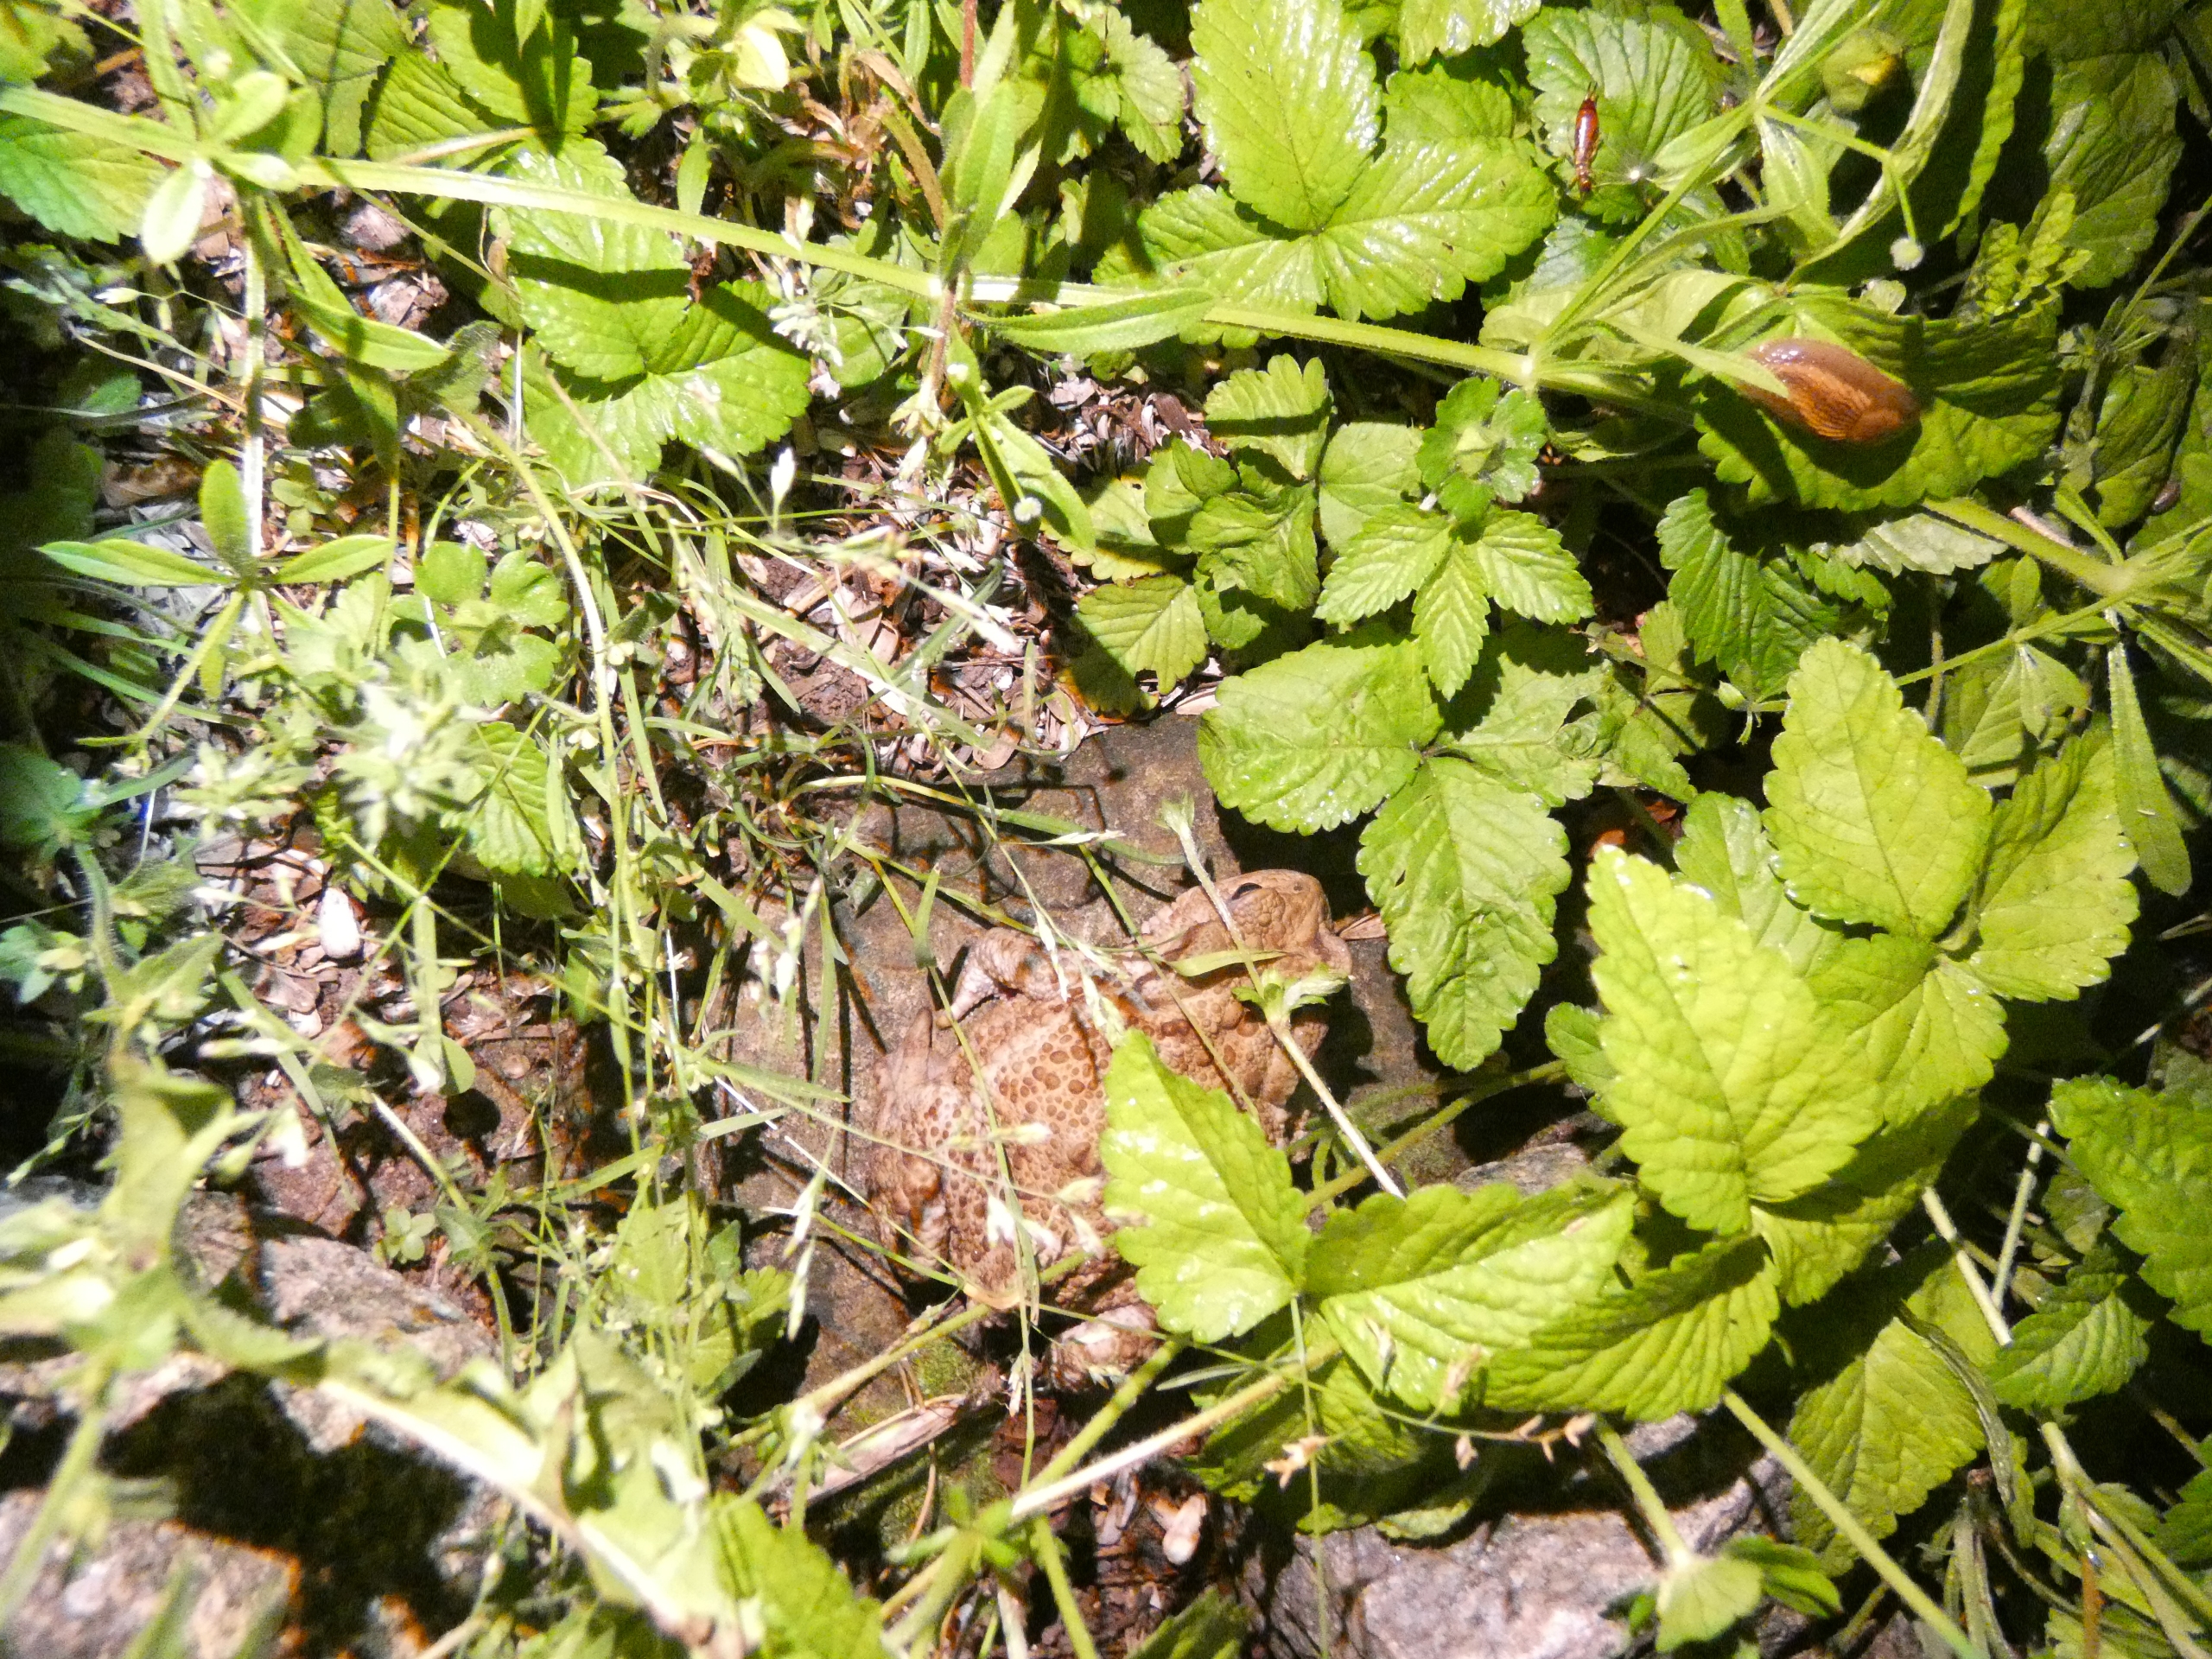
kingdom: Animalia
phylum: Chordata
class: Amphibia
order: Anura
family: Bufonidae
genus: Bufo
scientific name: Bufo bufo
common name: Skrubtudse
